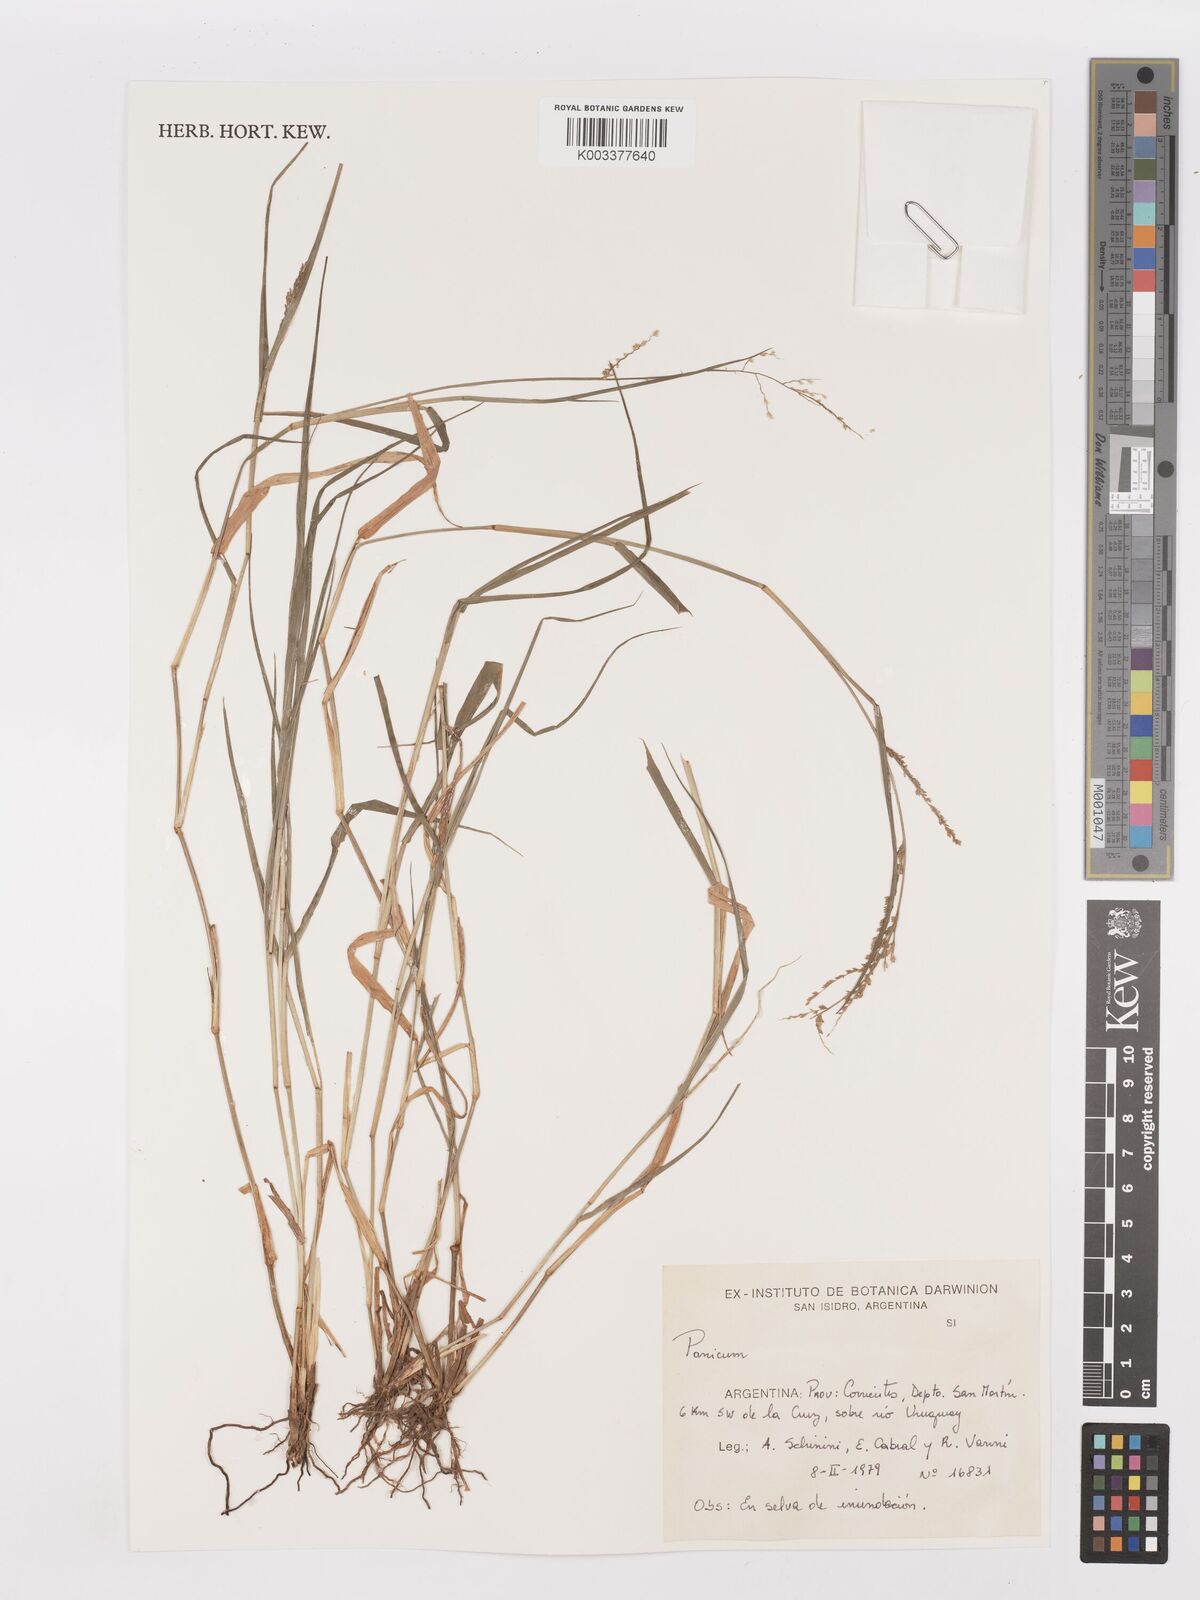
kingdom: Plantae
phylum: Tracheophyta
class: Liliopsida
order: Poales
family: Poaceae
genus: Steinchisma
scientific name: Steinchisma laxum
